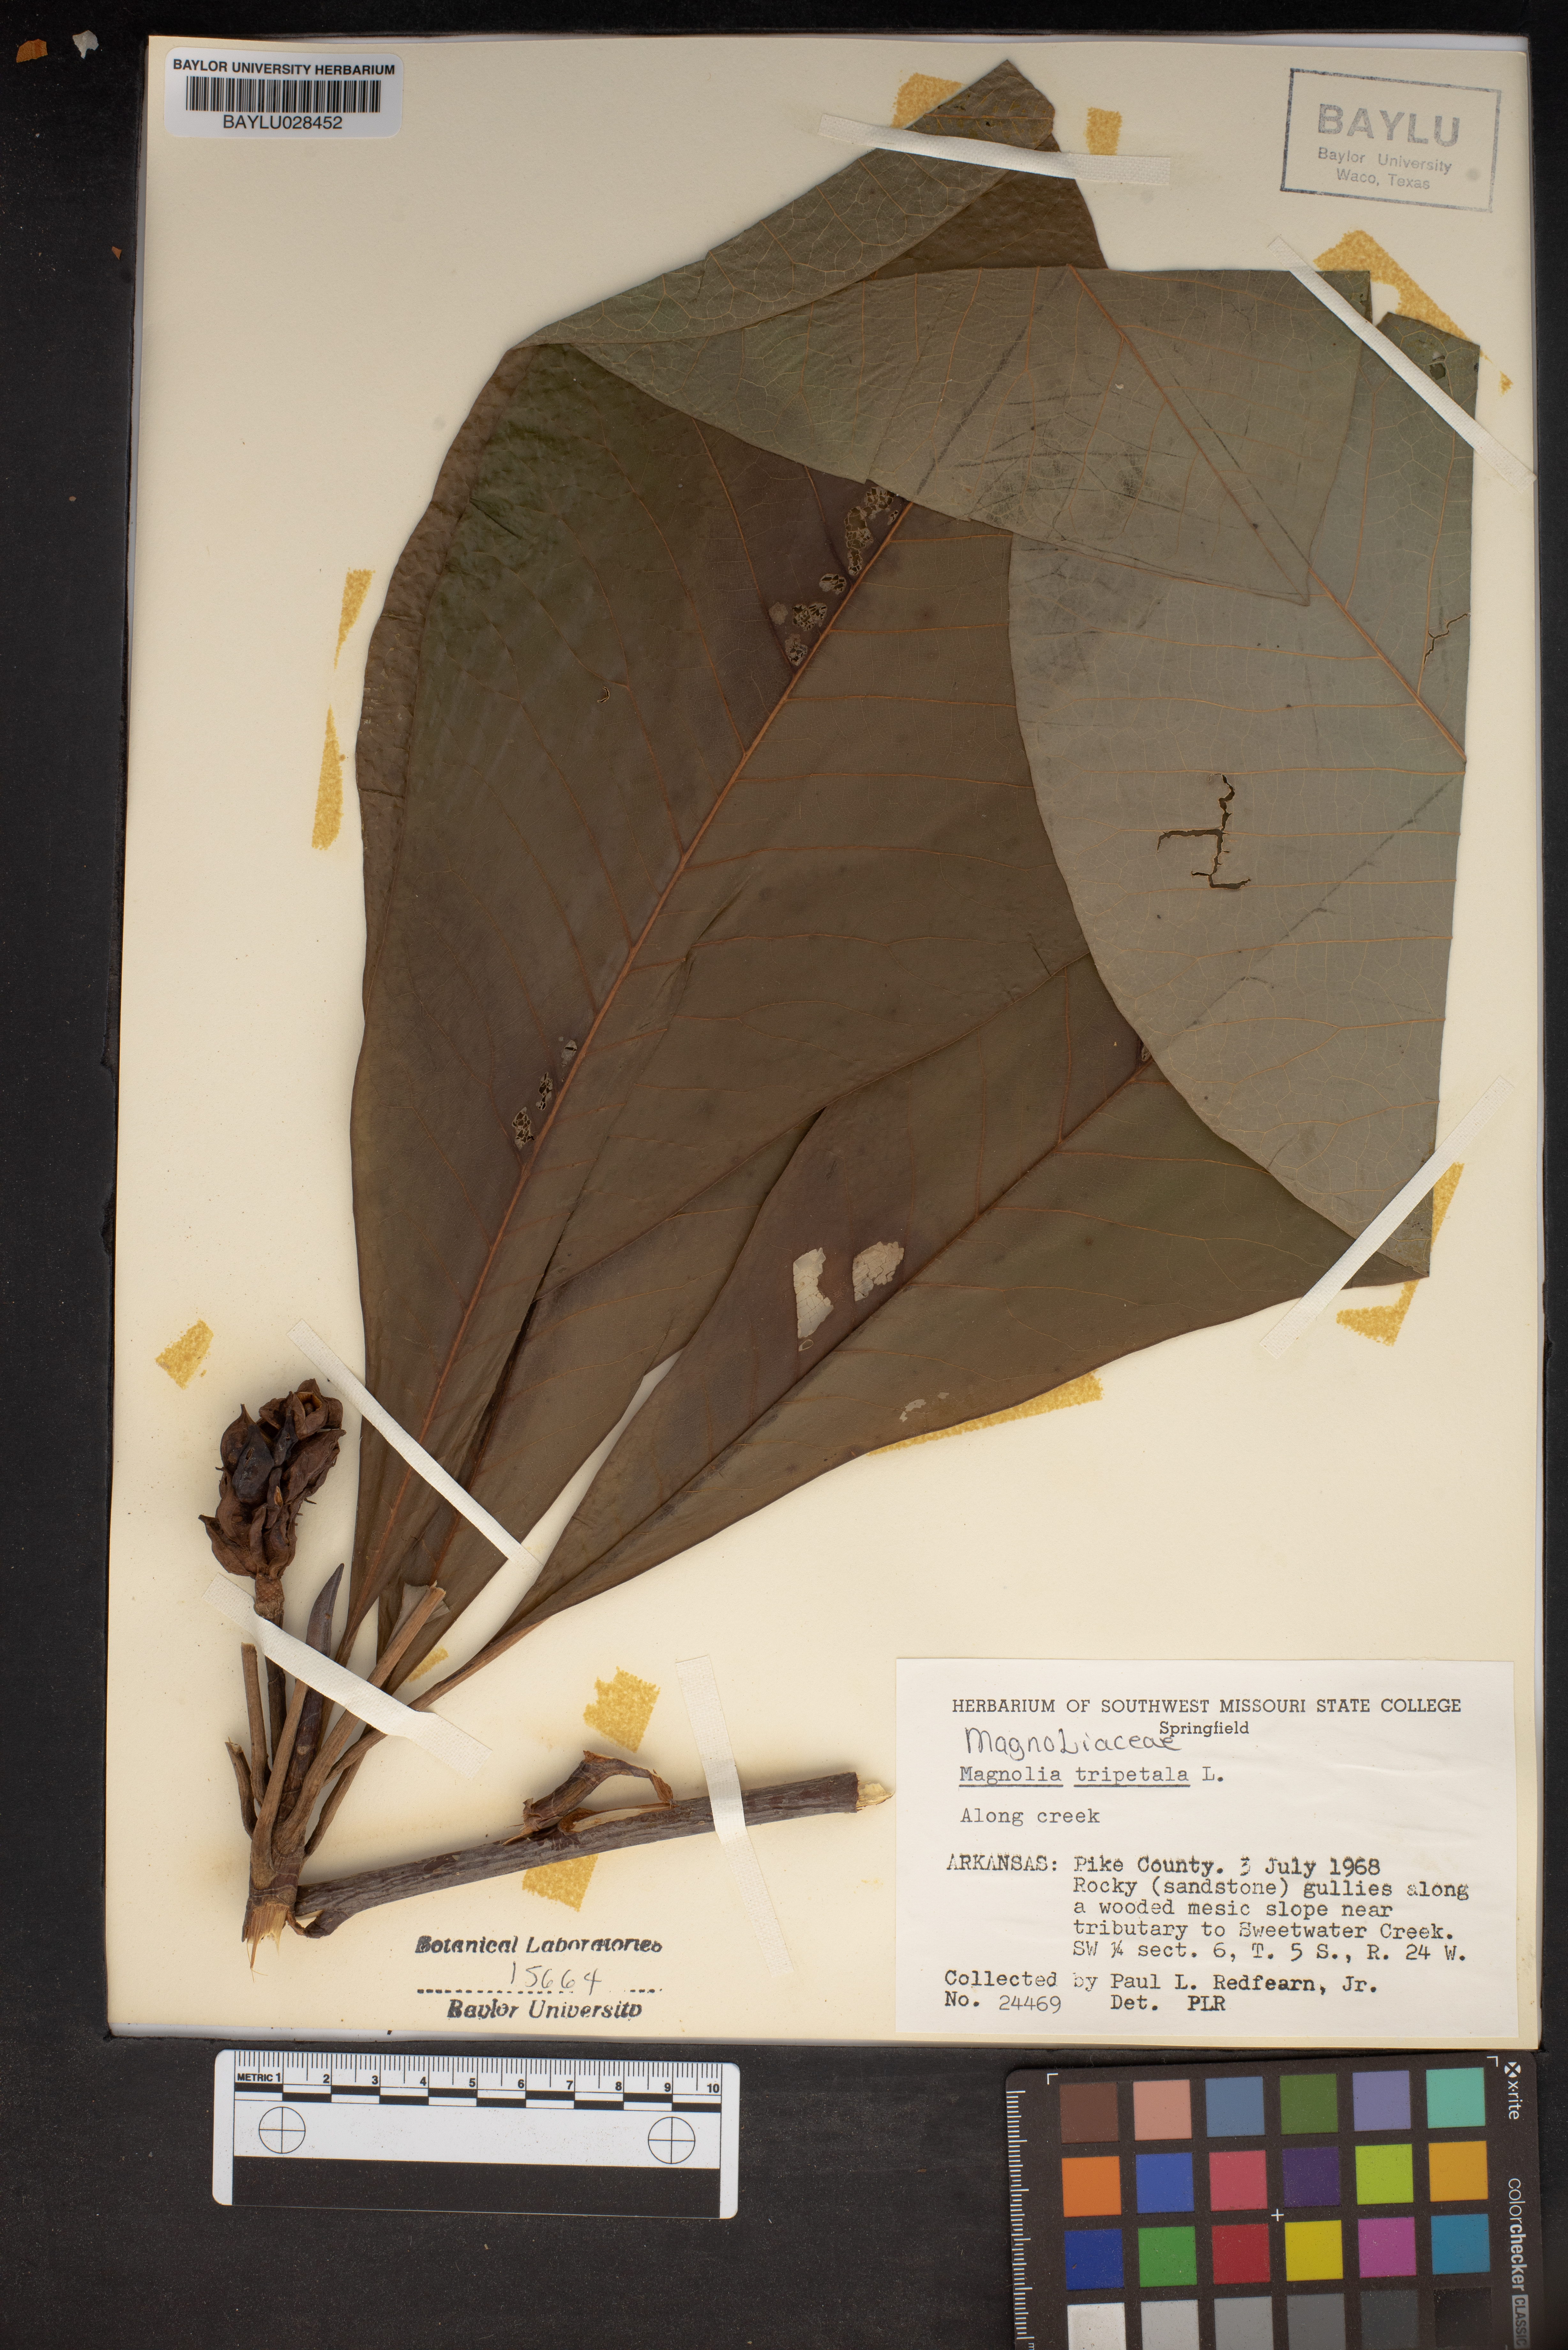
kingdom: Plantae
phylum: Tracheophyta
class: Magnoliopsida
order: Magnoliales
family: Magnoliaceae
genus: Magnolia
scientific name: Magnolia tripetala
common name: Umbrella magnolia
